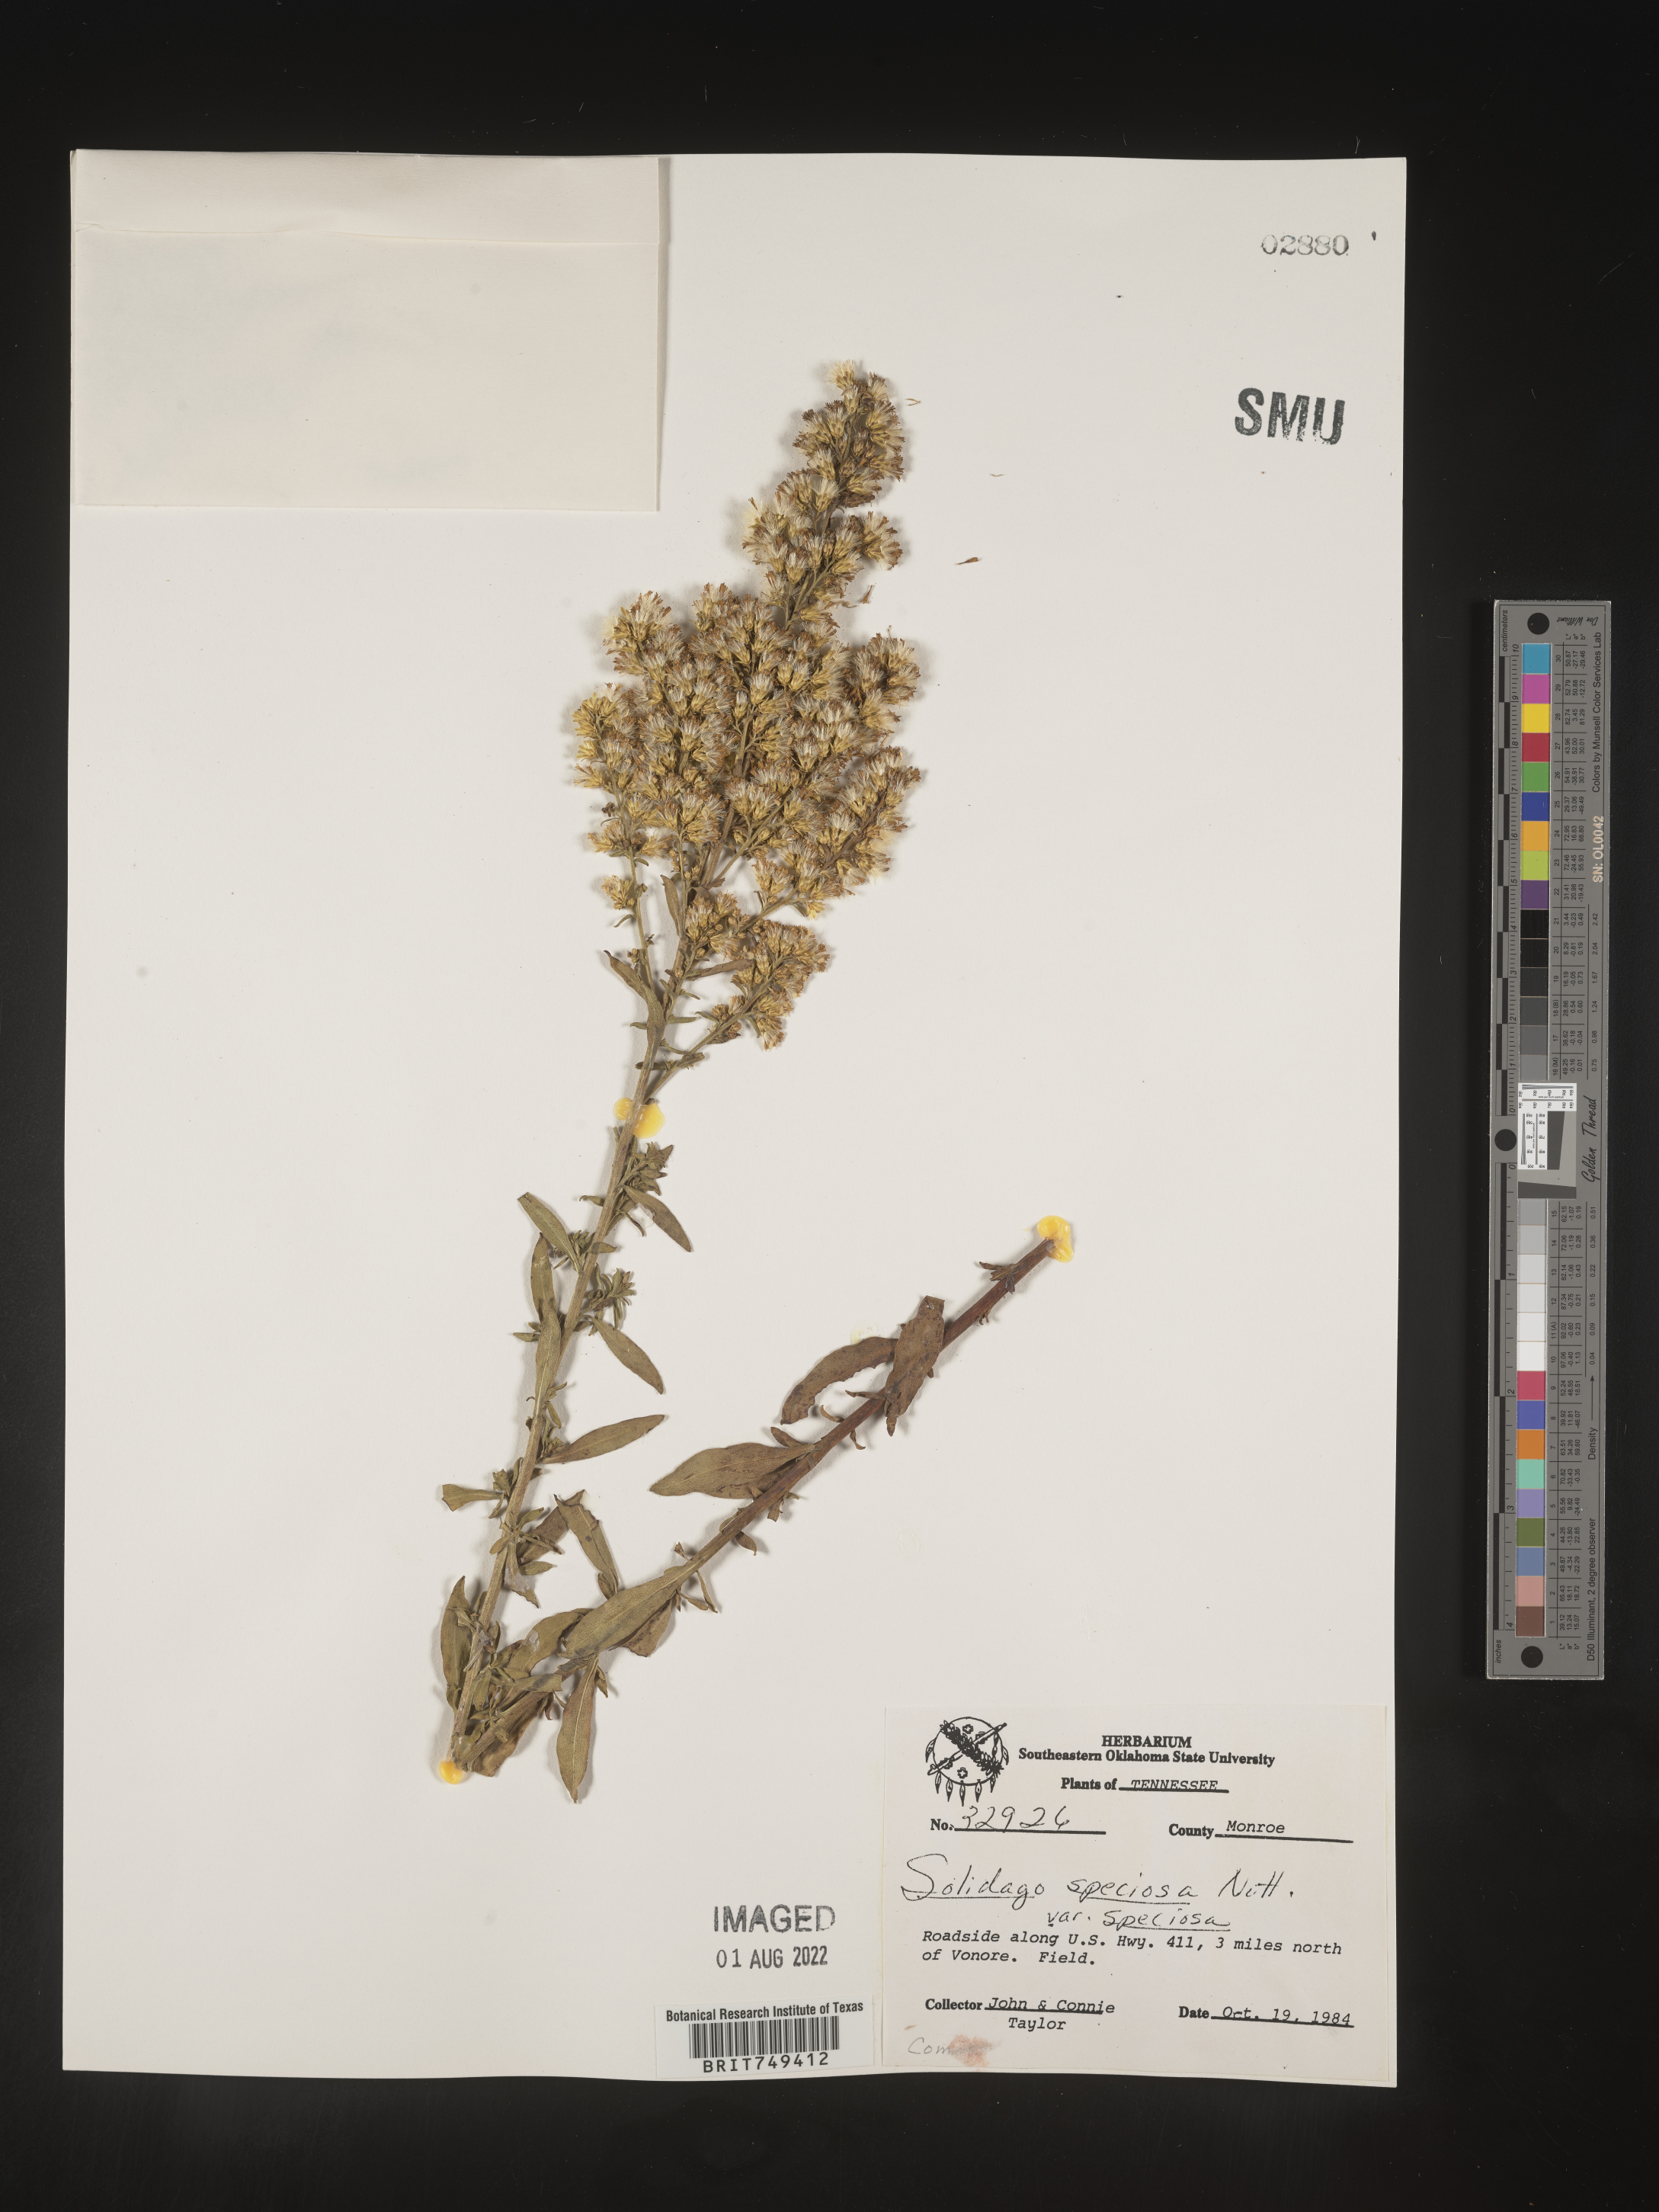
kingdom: Plantae
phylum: Tracheophyta
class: Magnoliopsida
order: Asterales
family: Asteraceae
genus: Solidago
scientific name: Solidago speciosa
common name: Showy goldenrod
